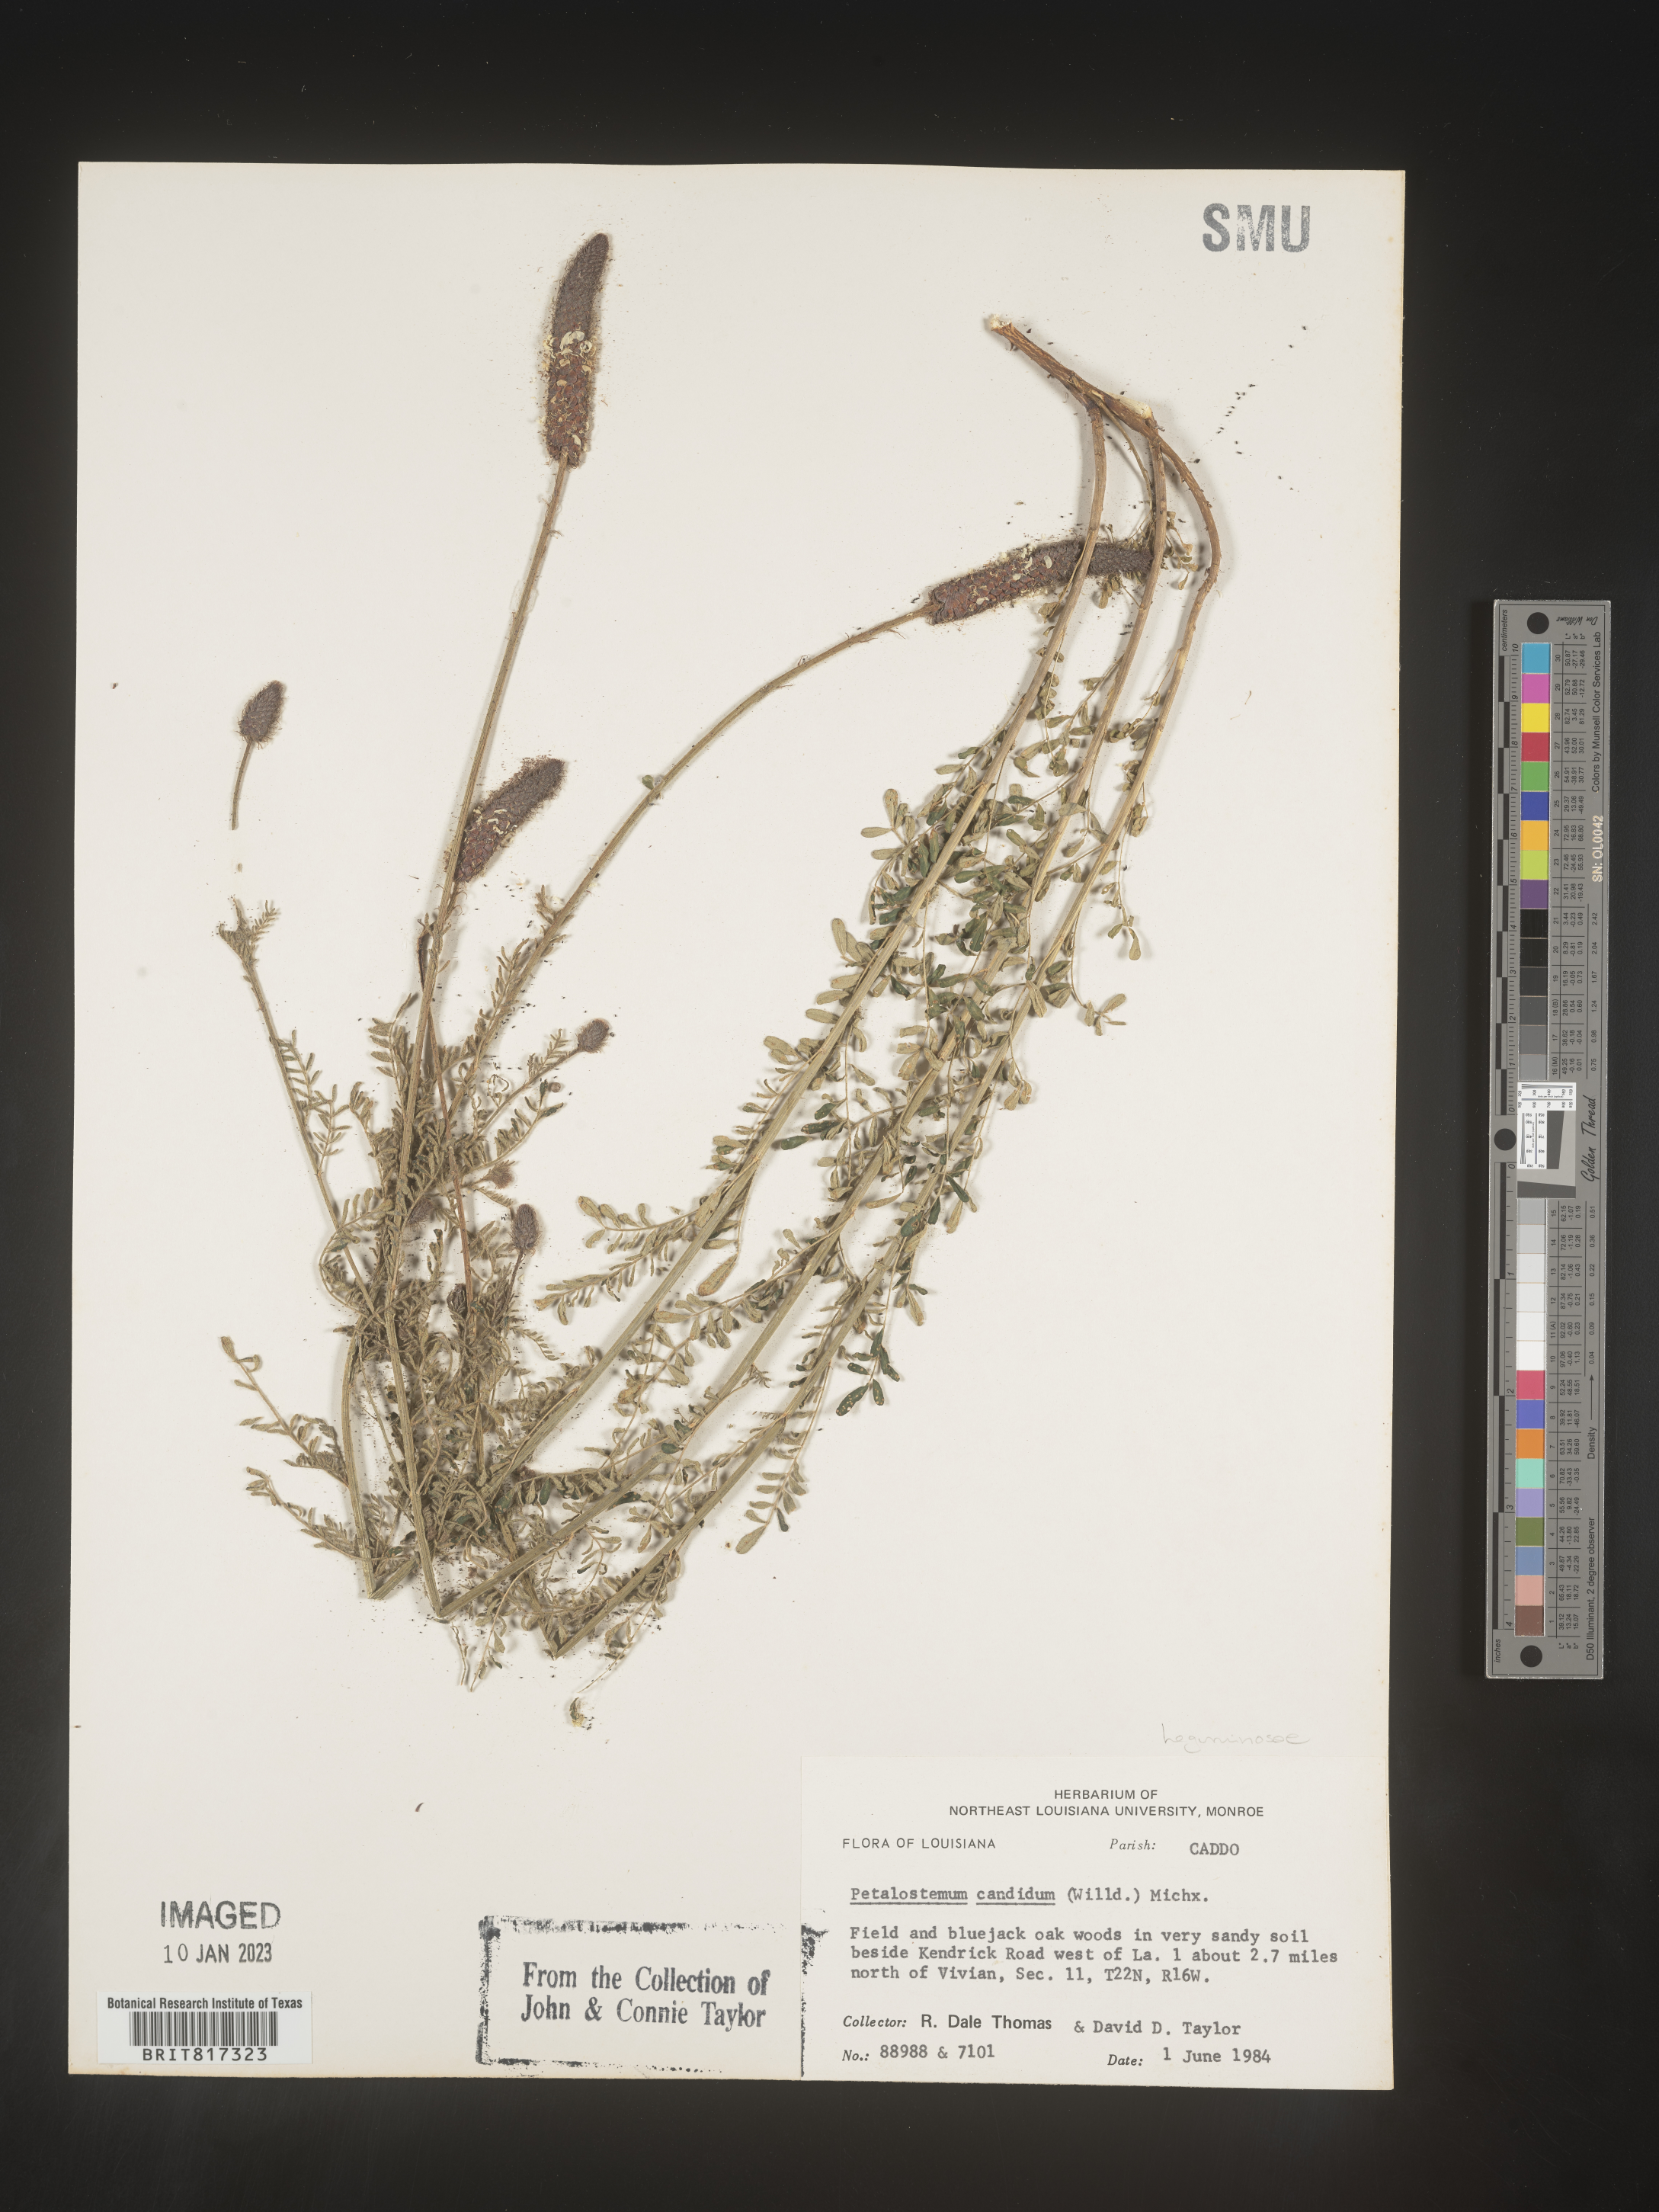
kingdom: Plantae
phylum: Tracheophyta
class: Magnoliopsida
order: Fabales
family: Fabaceae
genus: Dalea
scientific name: Dalea candida
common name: White prairie-clover
